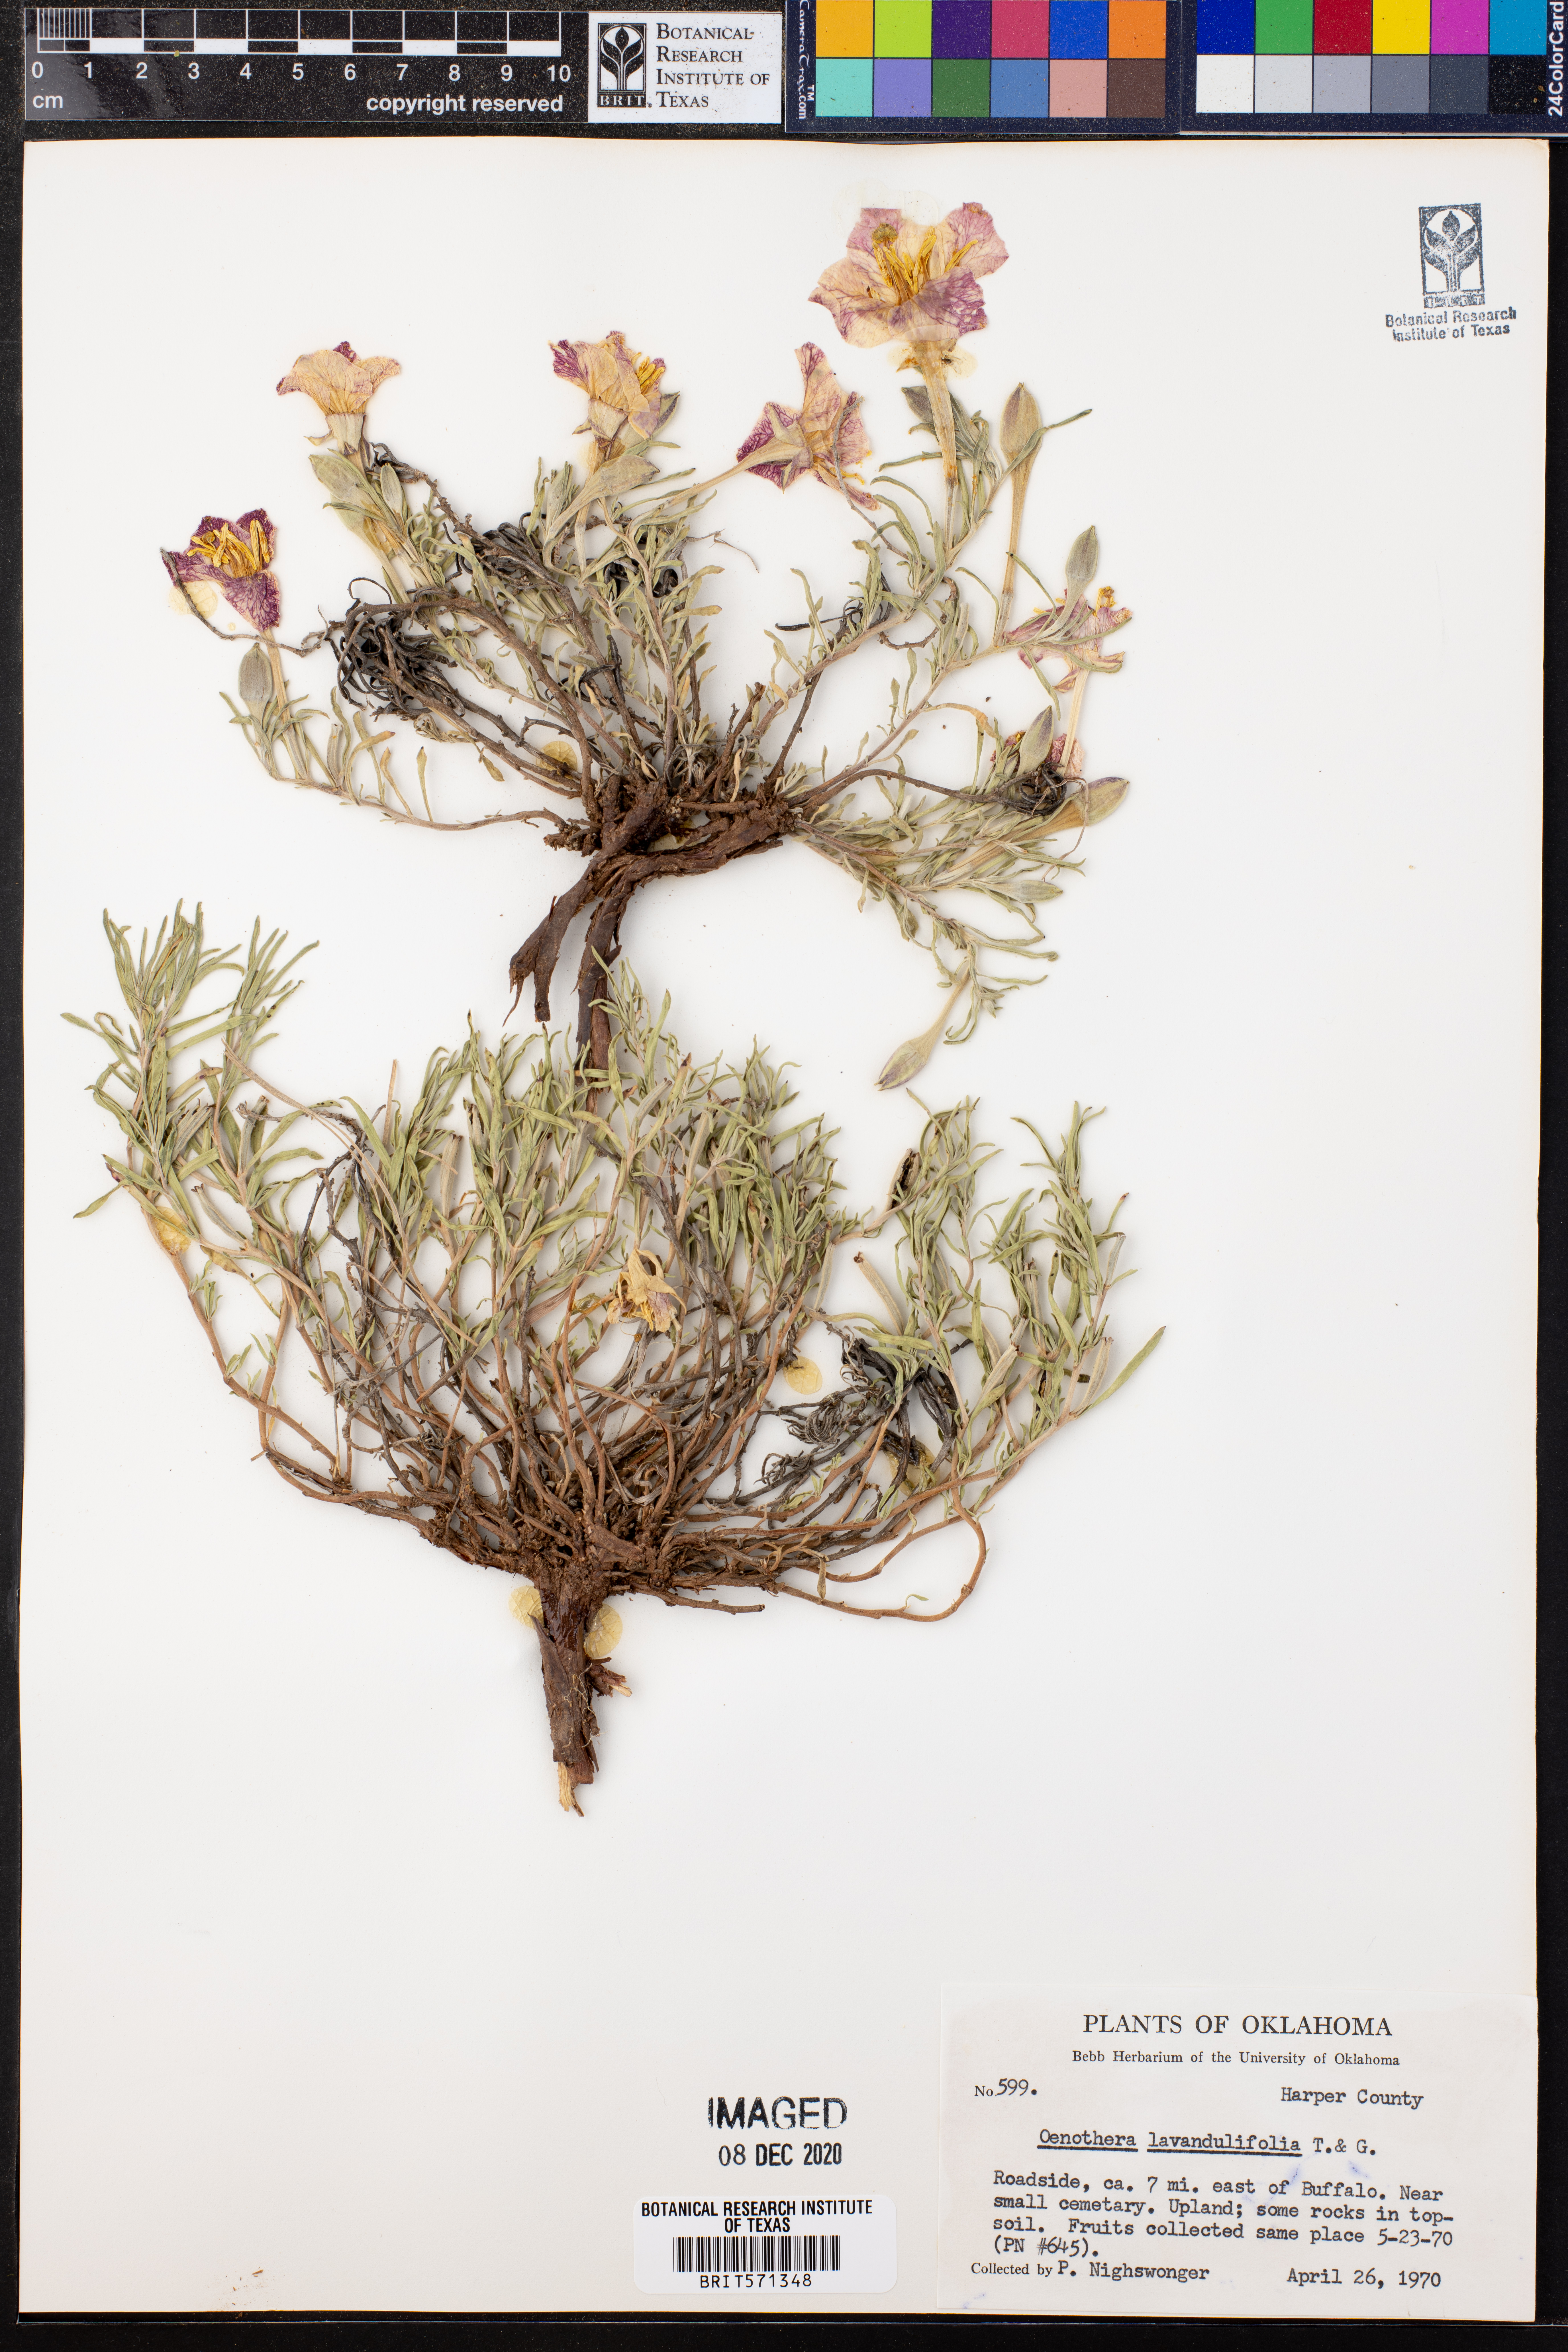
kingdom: Plantae
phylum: Tracheophyta
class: Magnoliopsida
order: Myrtales
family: Onagraceae
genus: Oenothera
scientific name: Oenothera lavandulifolia
